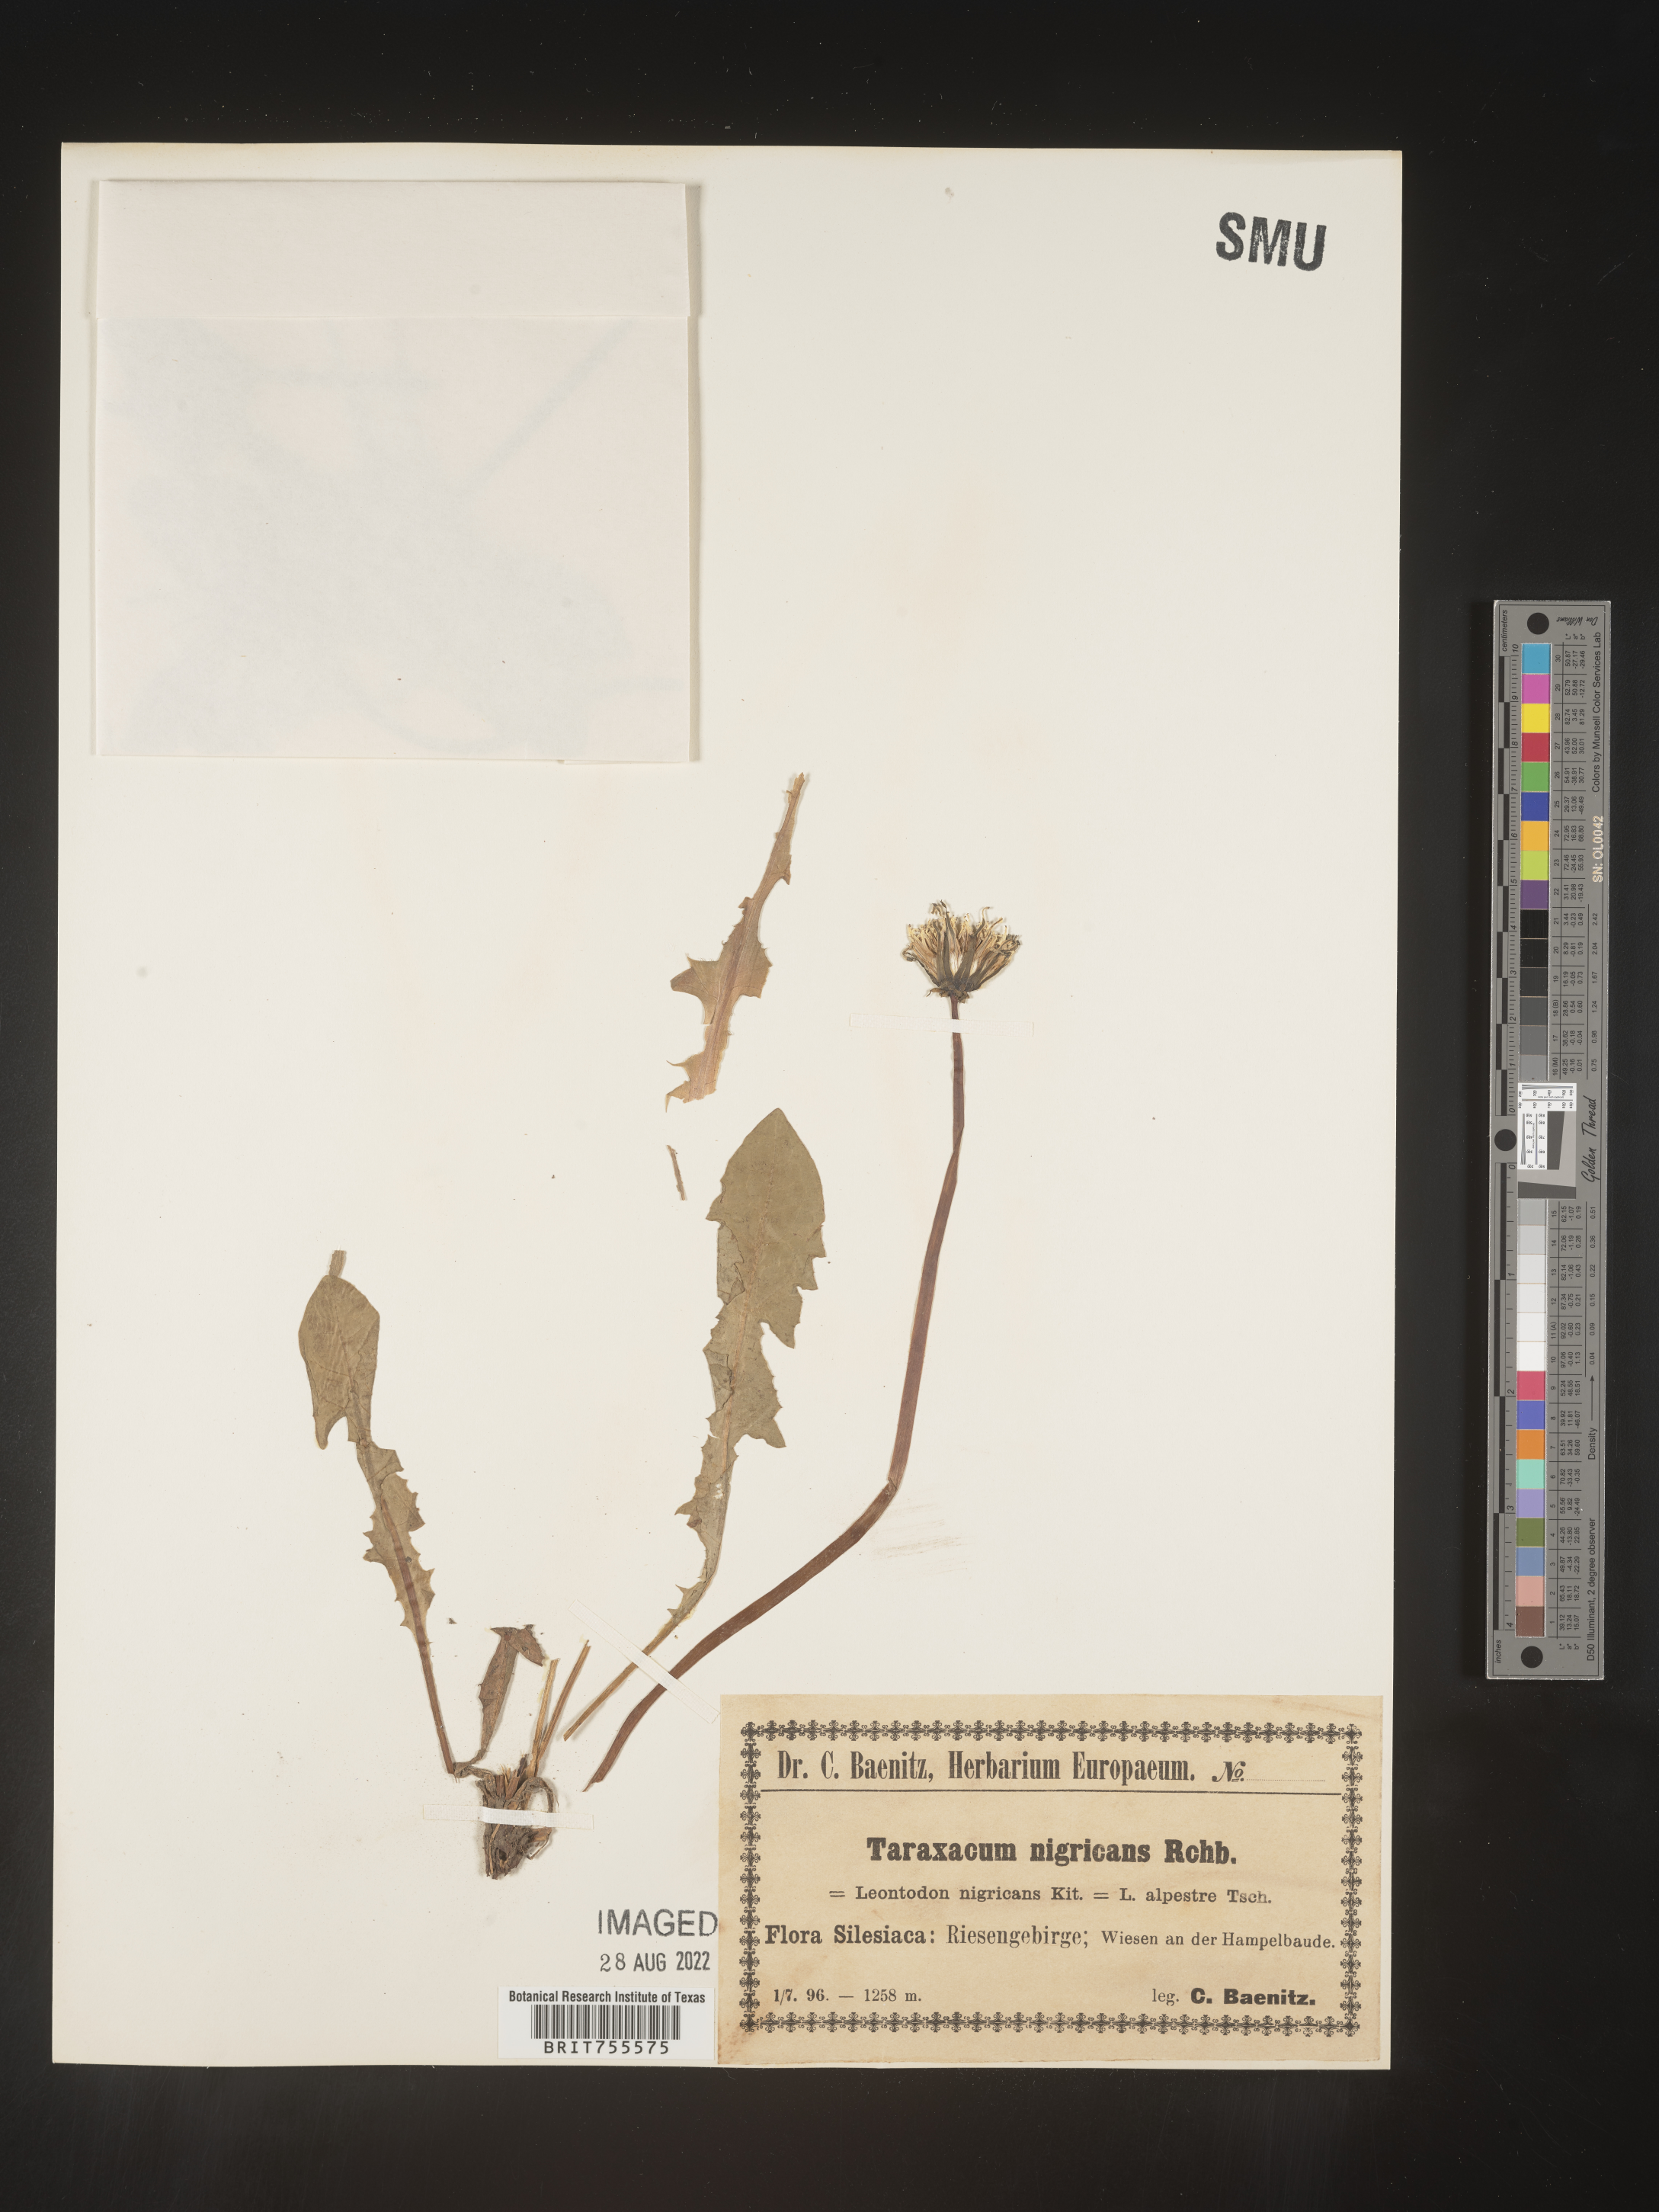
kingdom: Plantae
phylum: Tracheophyta
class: Magnoliopsida
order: Asterales
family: Asteraceae
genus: Taraxacum
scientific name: Taraxacum
